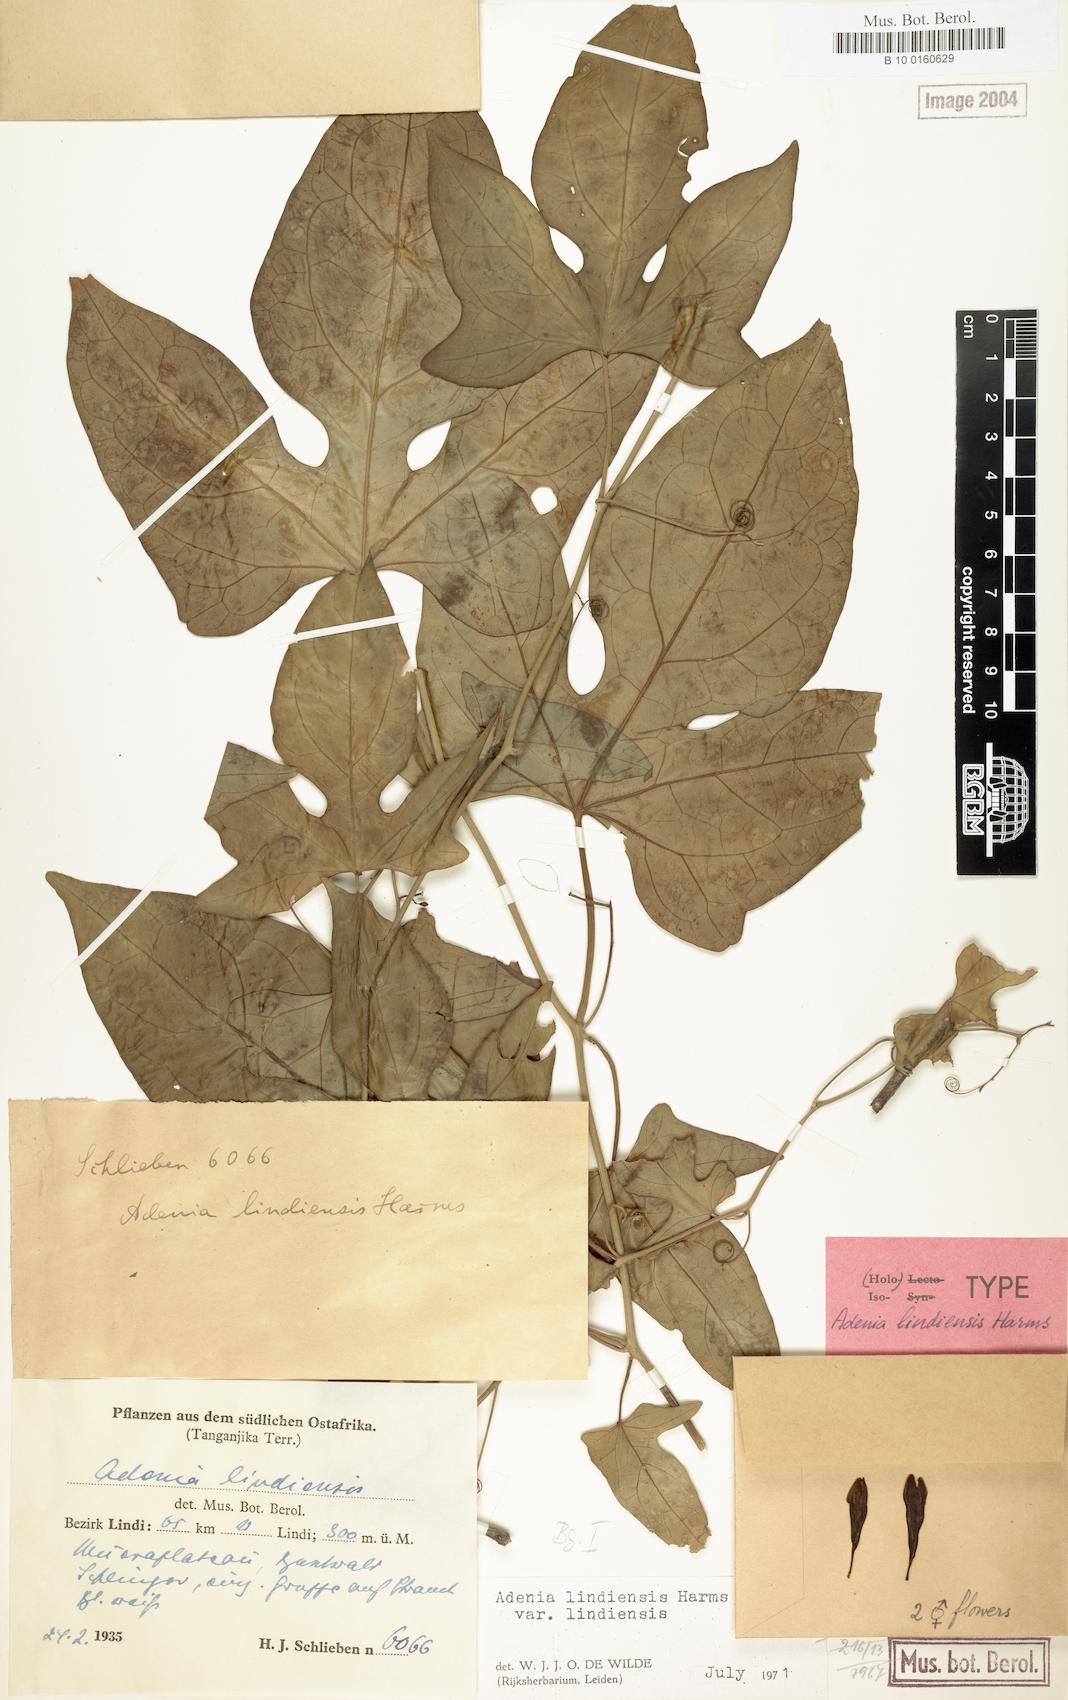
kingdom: Plantae
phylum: Tracheophyta
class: Magnoliopsida
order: Malpighiales
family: Passifloraceae
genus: Adenia
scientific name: Adenia lindiensis
